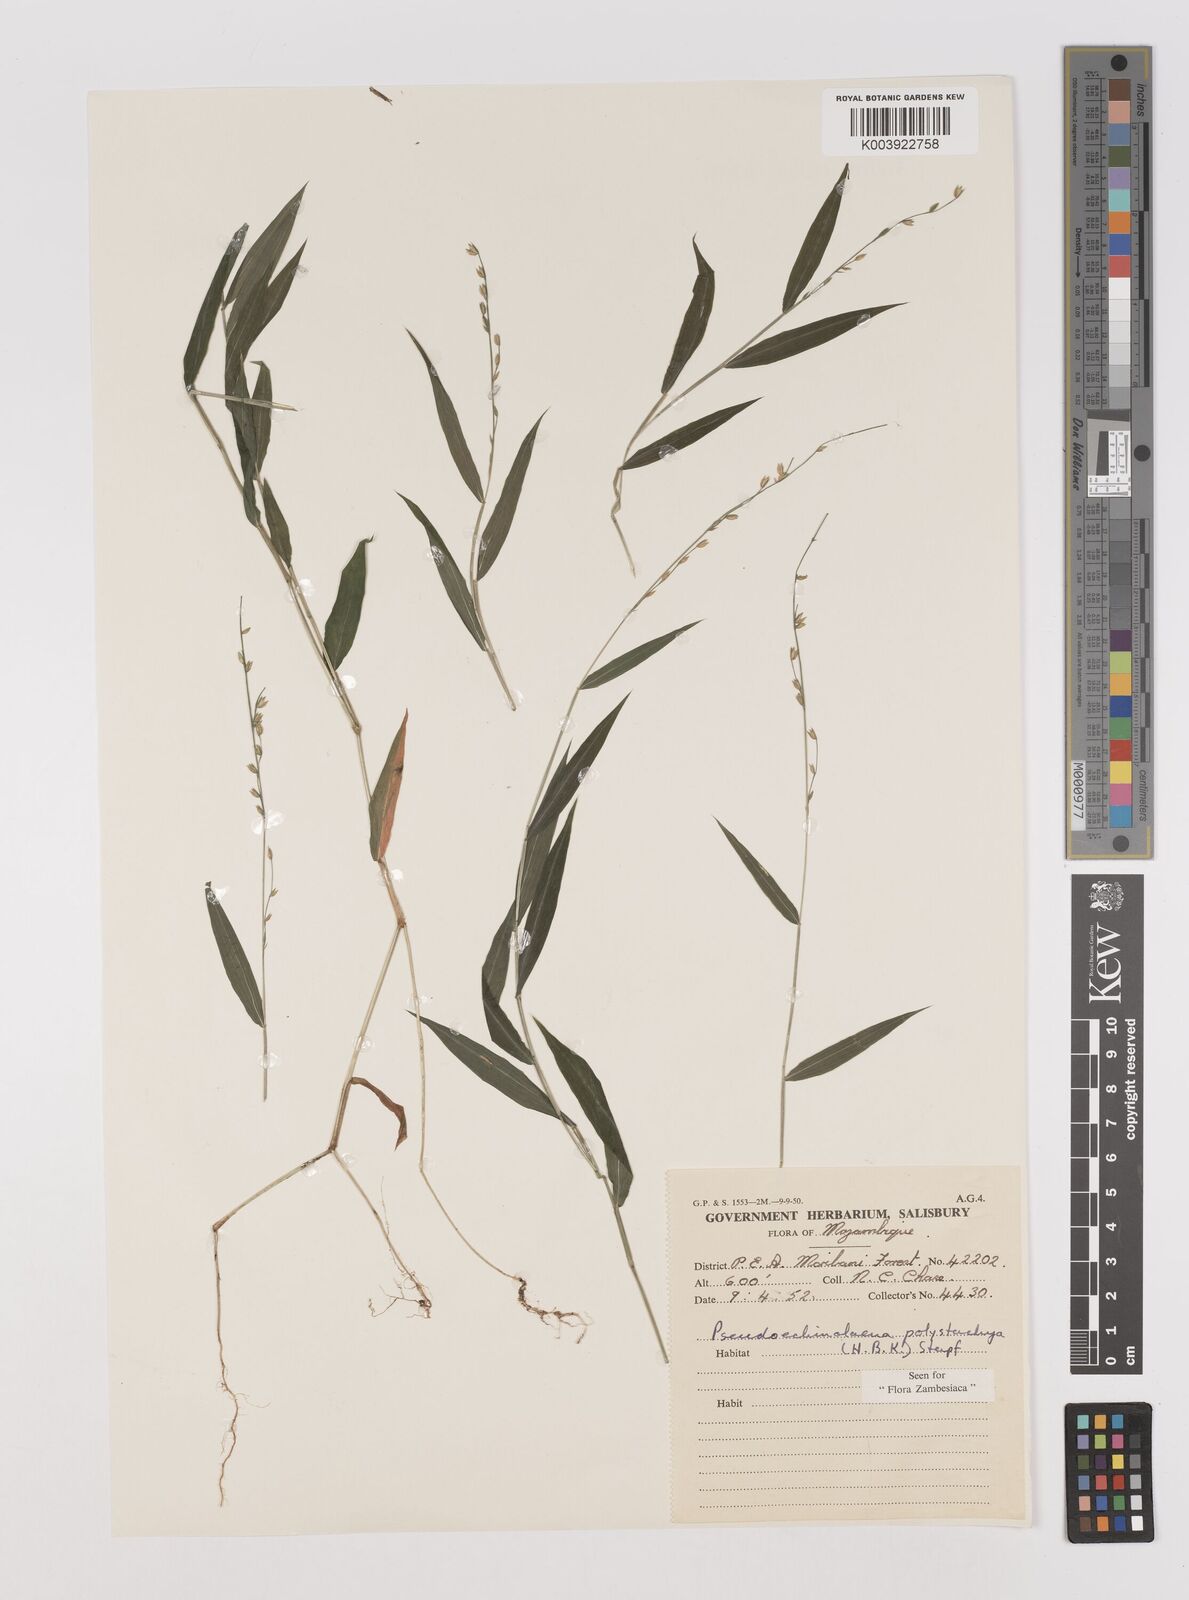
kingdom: Plantae
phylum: Tracheophyta
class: Liliopsida
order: Poales
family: Poaceae
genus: Pseudechinolaena
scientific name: Pseudechinolaena polystachya
